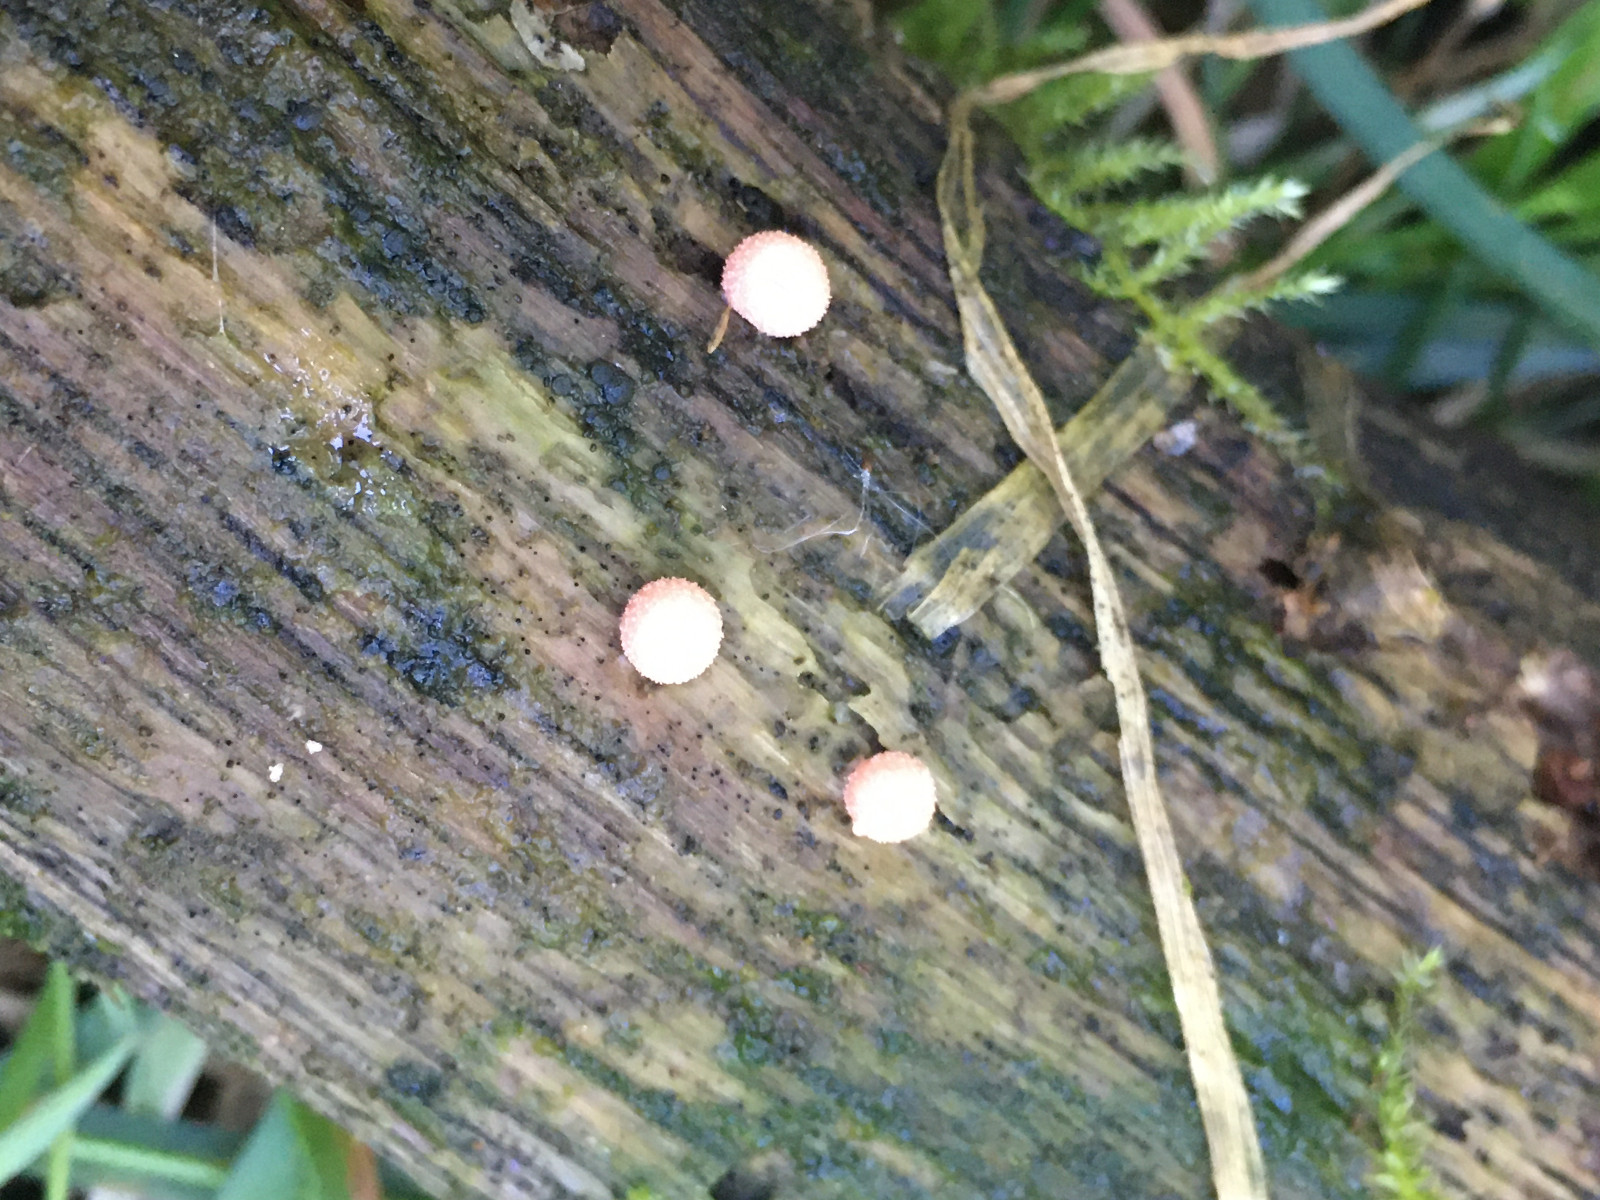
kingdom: Protozoa
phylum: Mycetozoa
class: Myxomycetes
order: Cribrariales
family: Tubiferaceae
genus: Lycogala
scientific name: Lycogala epidendrum
